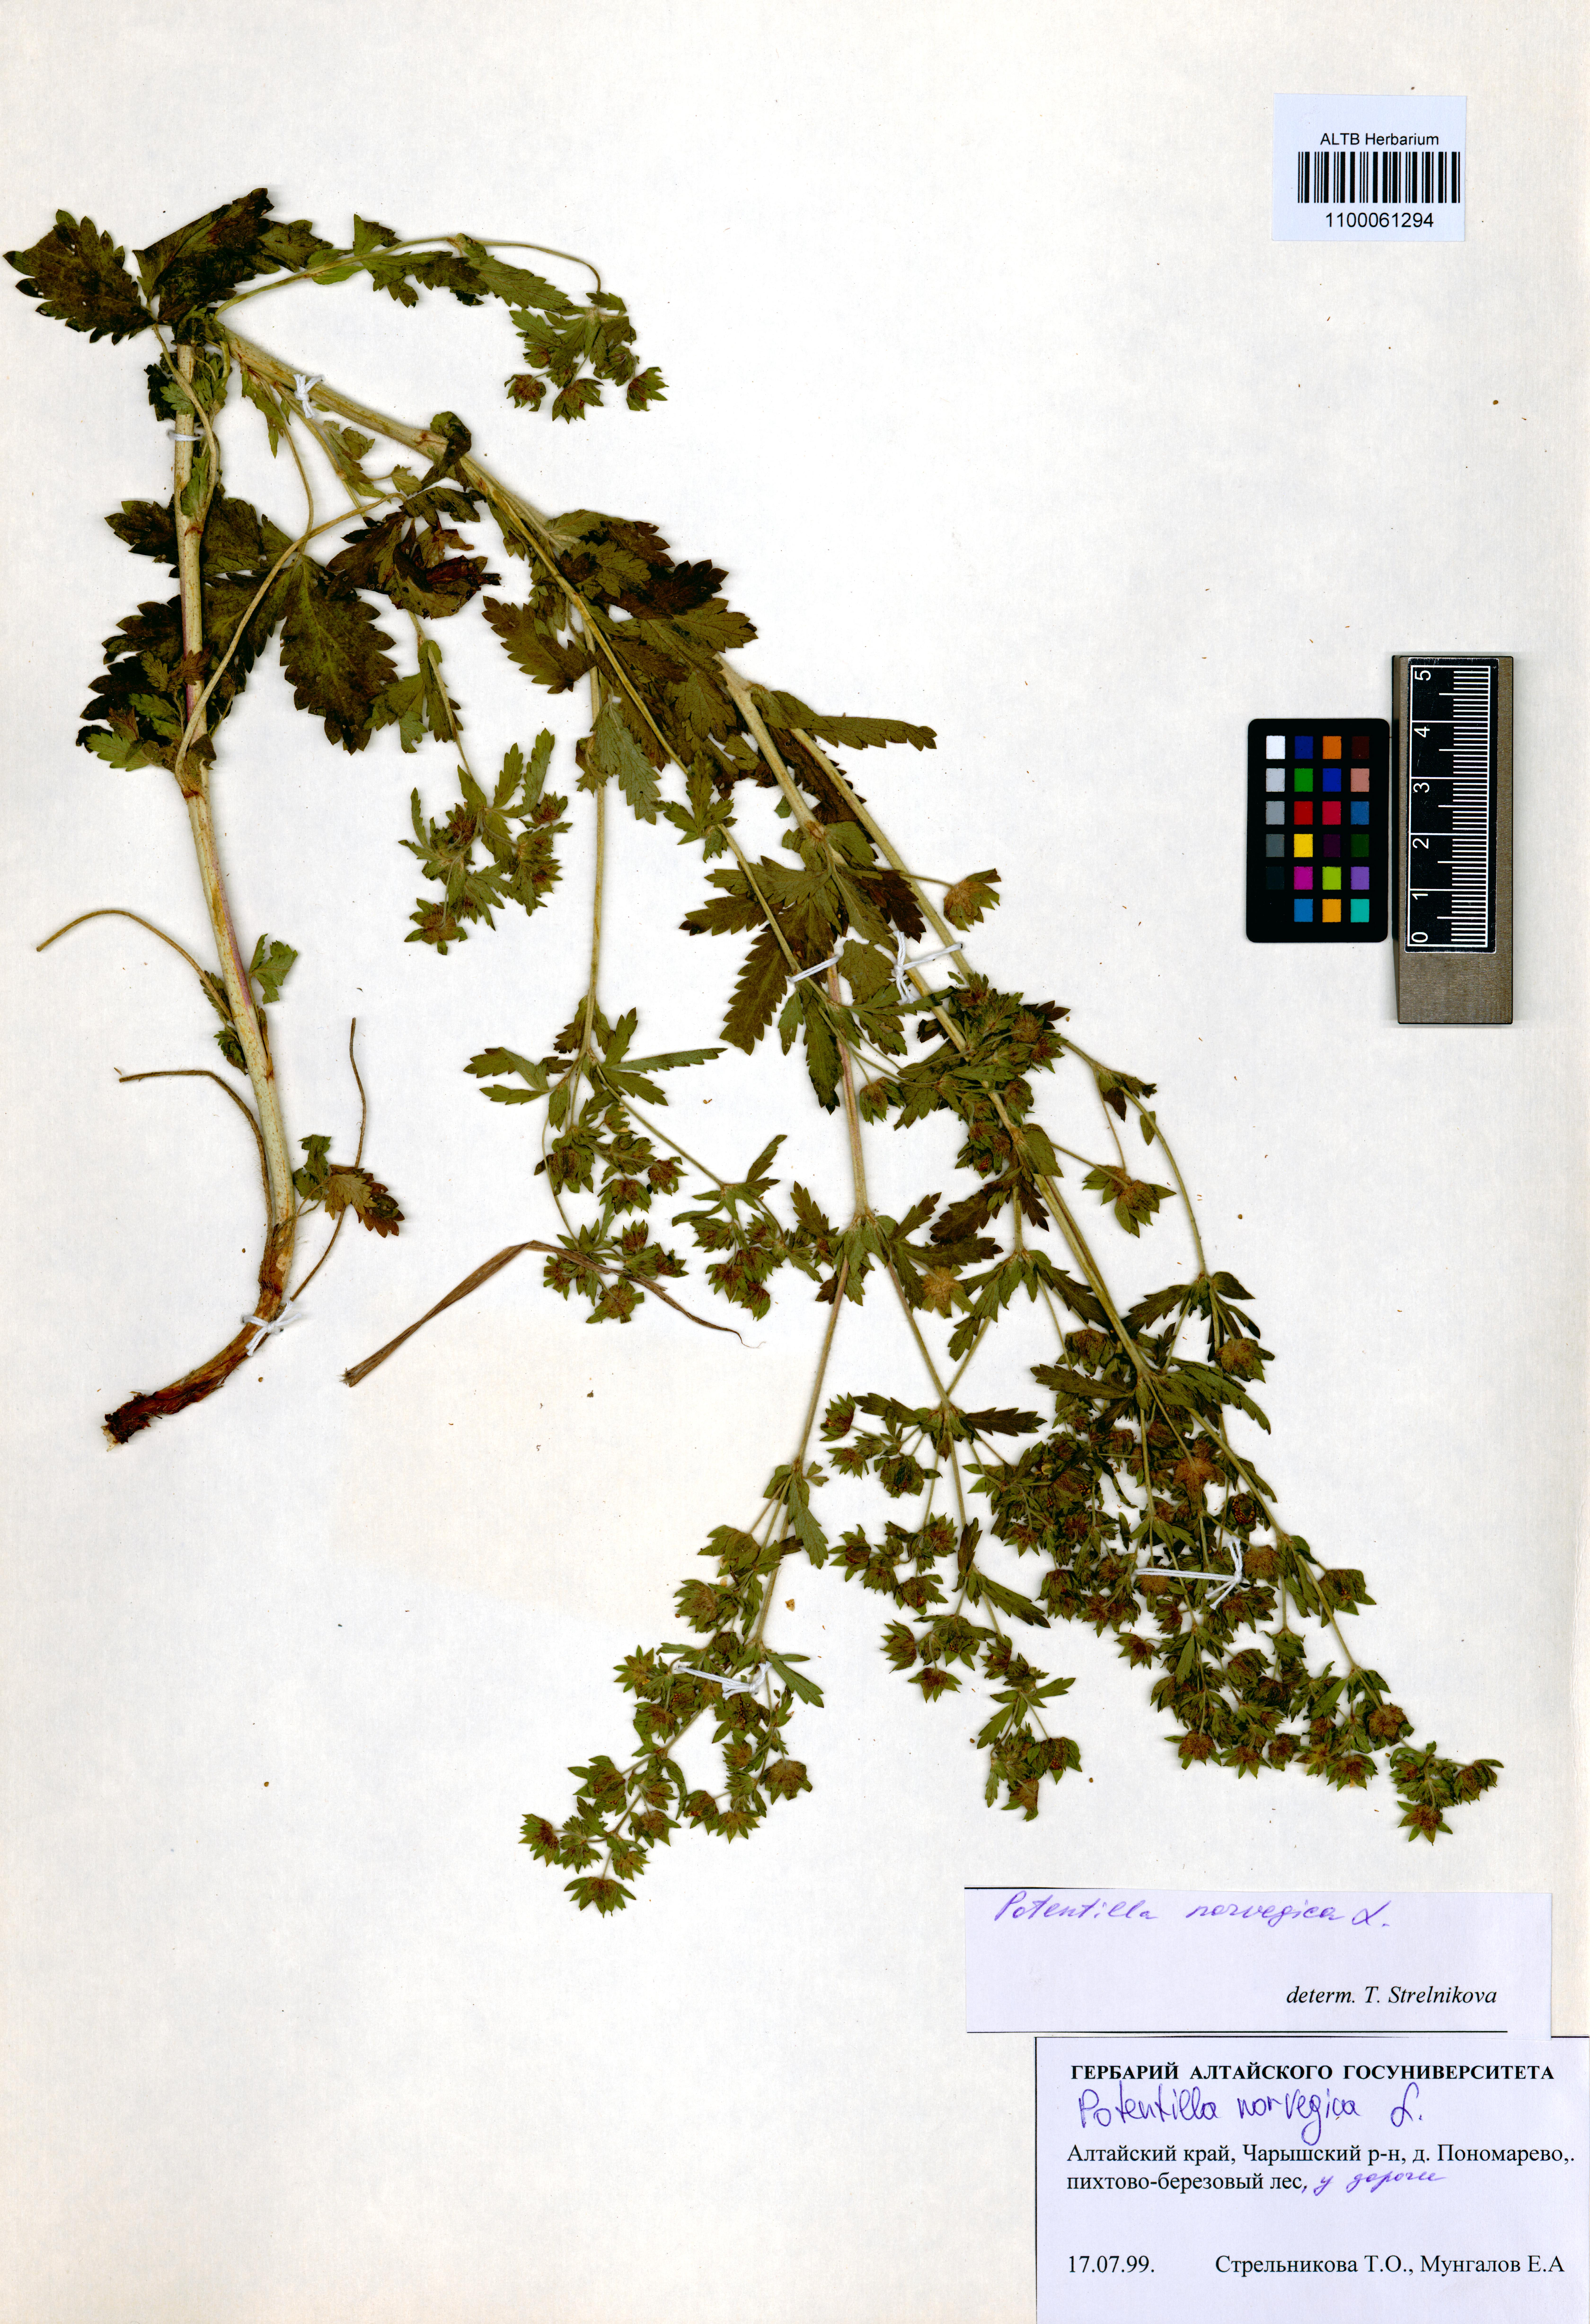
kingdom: Plantae
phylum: Tracheophyta
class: Magnoliopsida
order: Rosales
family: Rosaceae
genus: Potentilla
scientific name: Potentilla norvegica
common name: Ternate-leaved cinquefoil
